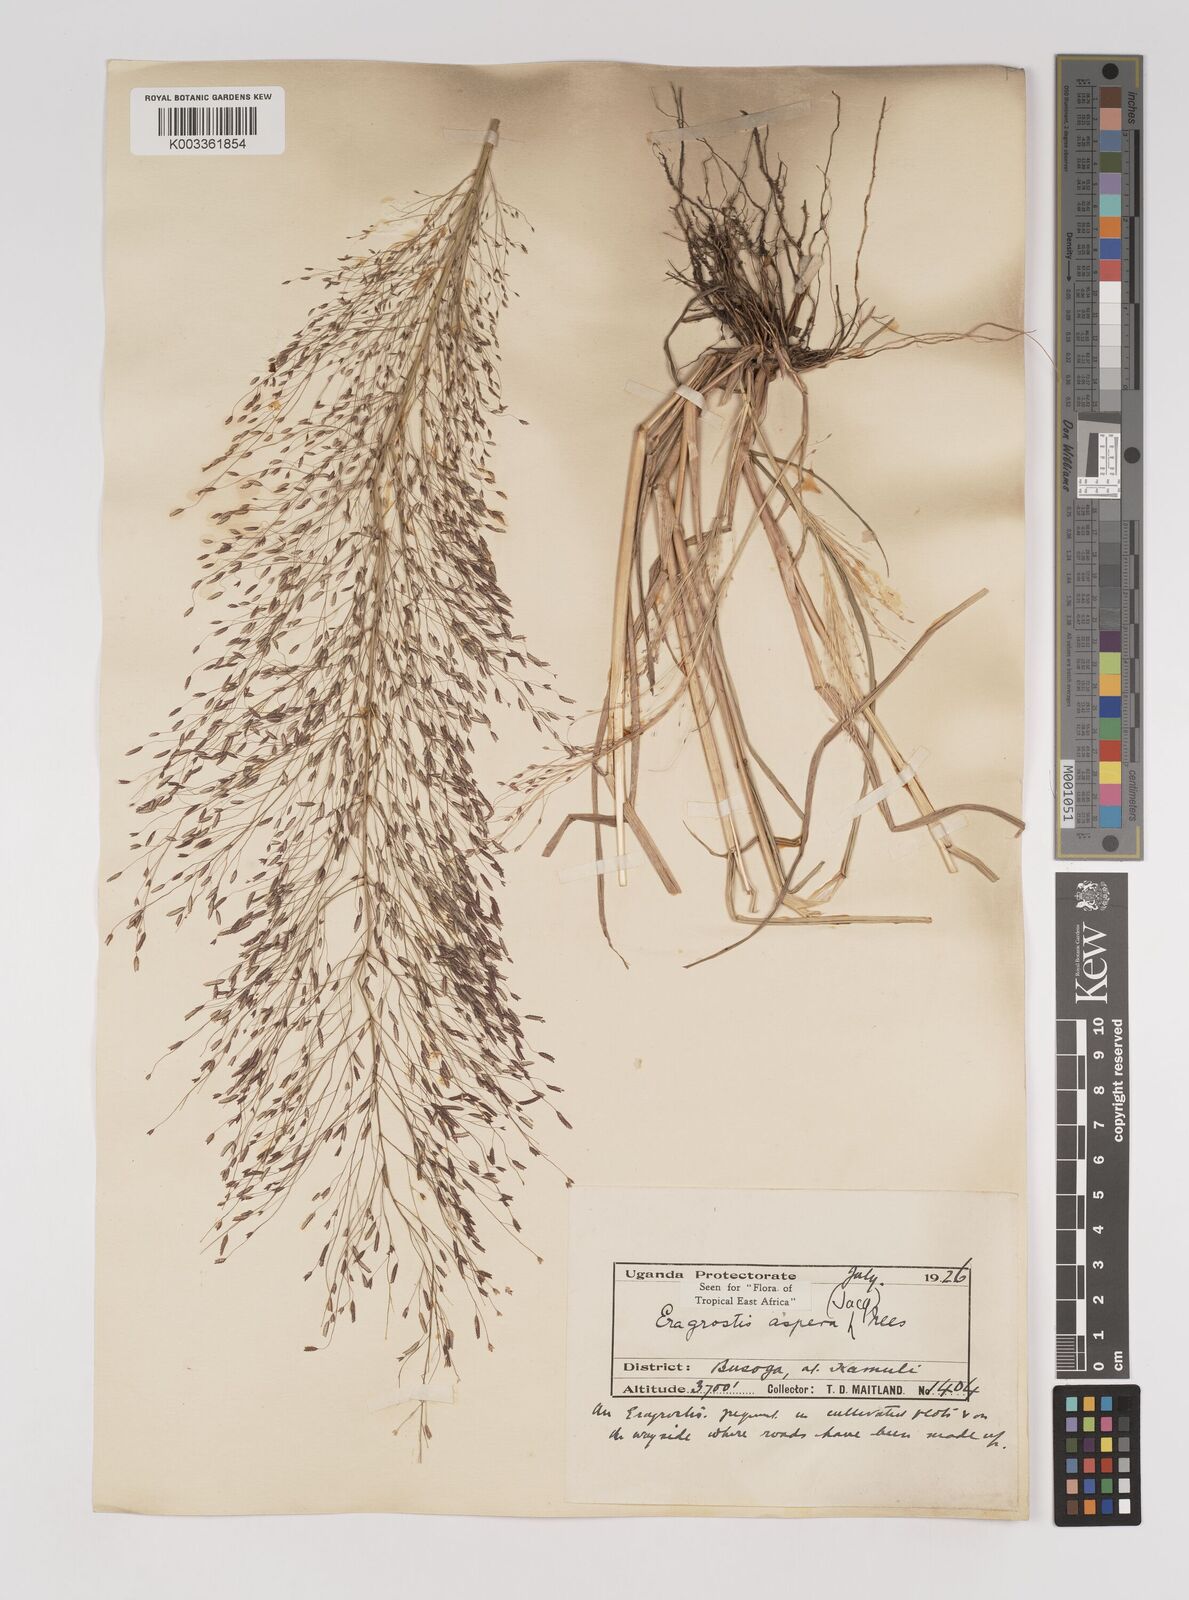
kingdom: Plantae
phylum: Tracheophyta
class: Liliopsida
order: Poales
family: Poaceae
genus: Eragrostis
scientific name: Eragrostis aspera
